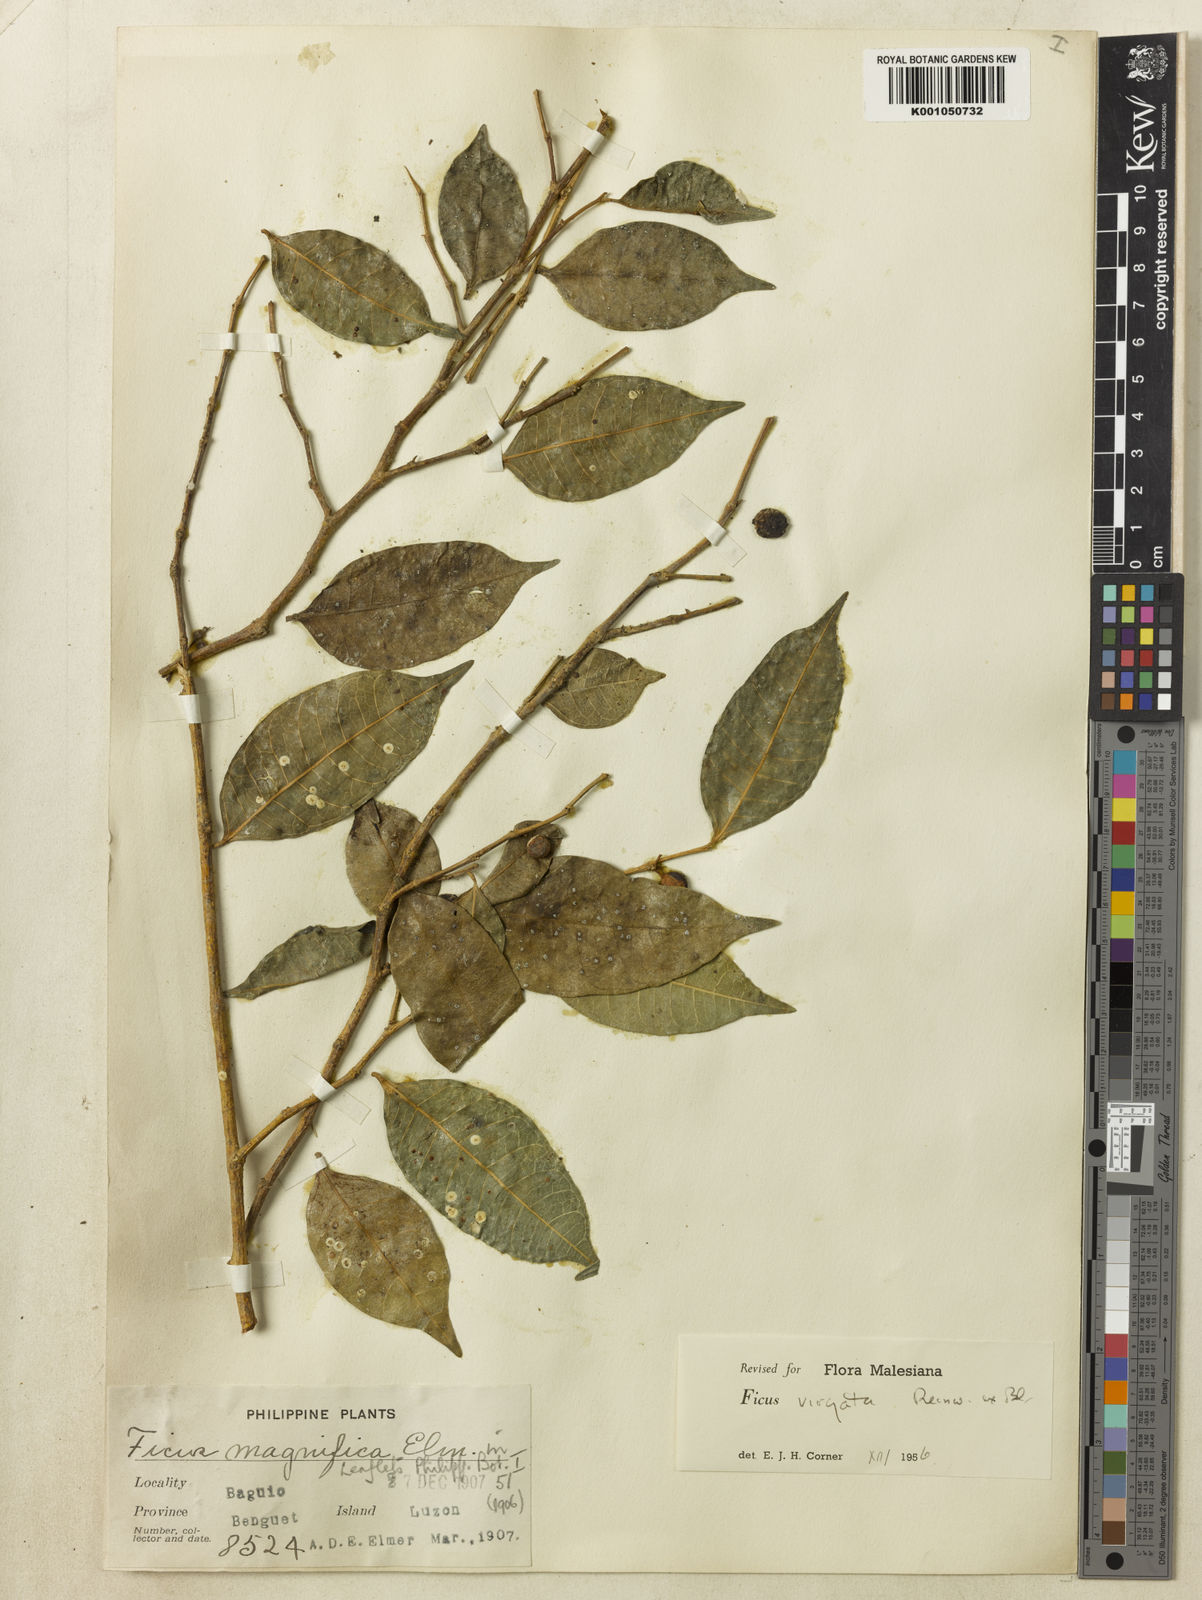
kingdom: Plantae
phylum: Tracheophyta
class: Magnoliopsida
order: Rosales
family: Moraceae
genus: Ficus
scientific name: Ficus virgata
